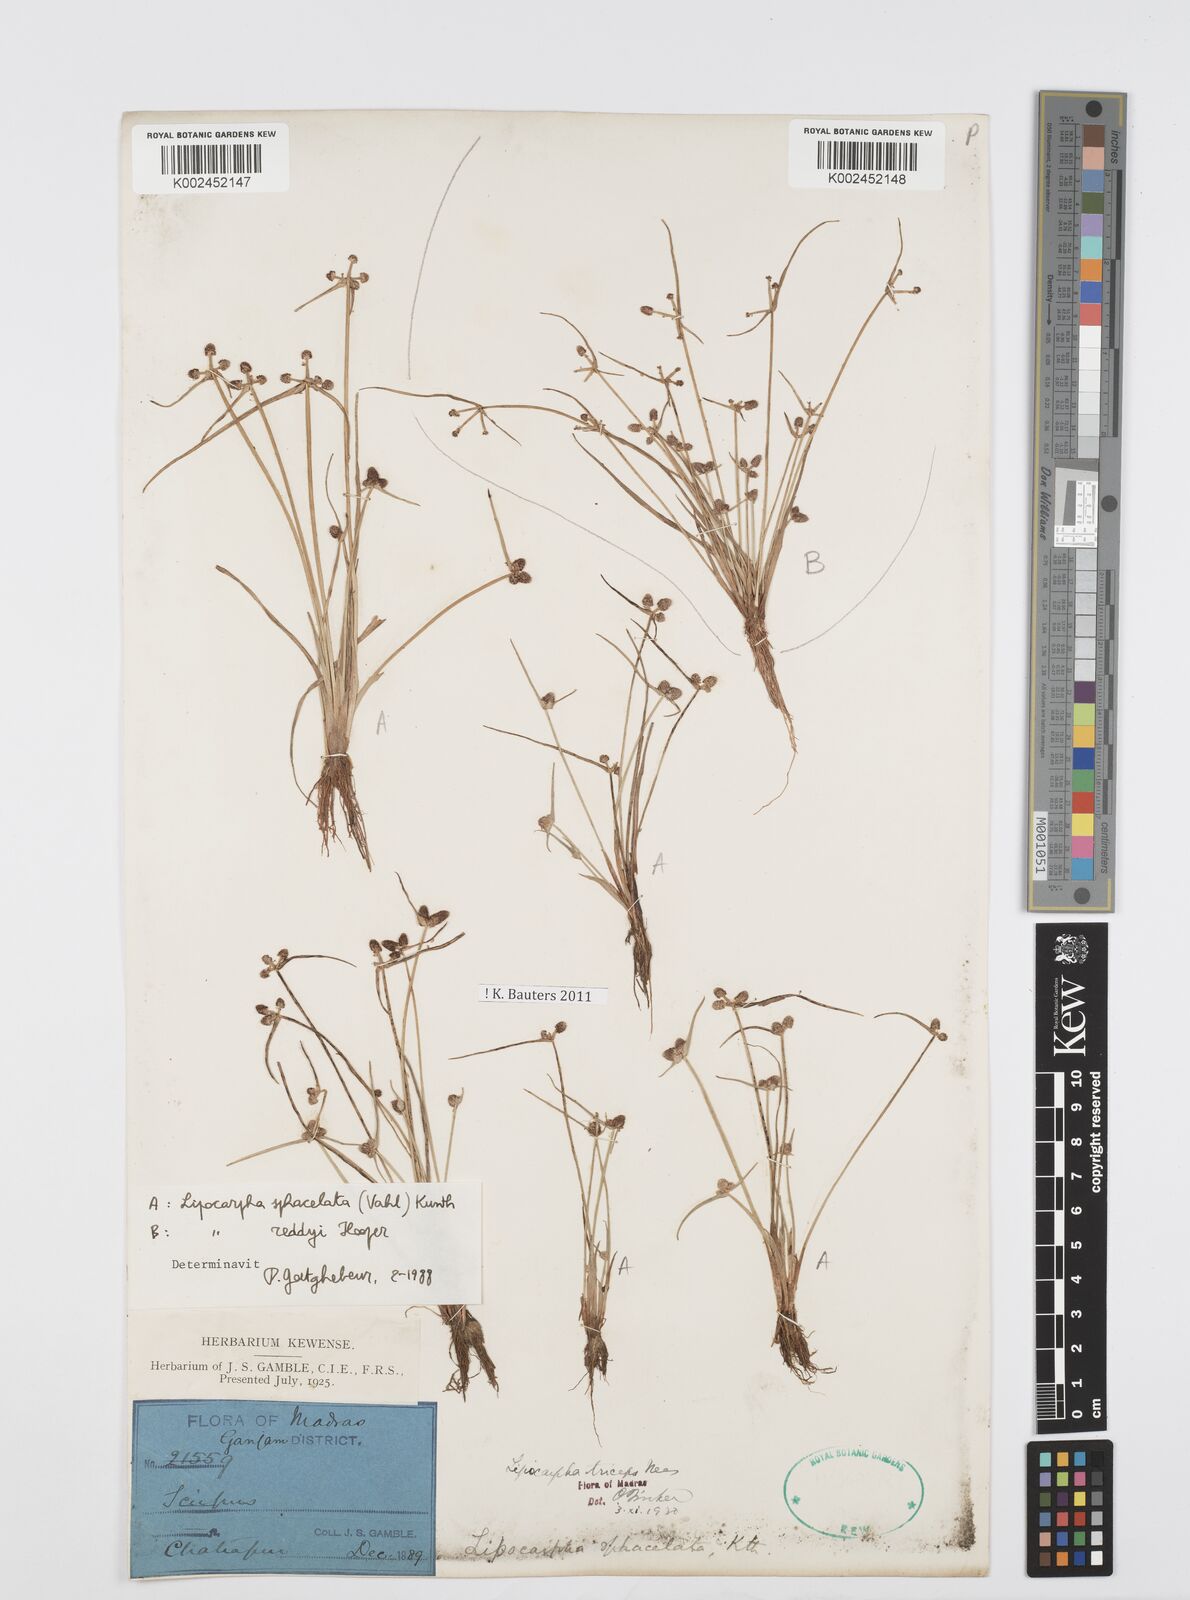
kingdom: Plantae
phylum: Tracheophyta
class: Liliopsida
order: Poales
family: Cyperaceae
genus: Cyperus
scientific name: Cyperus sphacelatus
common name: Roadside flatsedge
